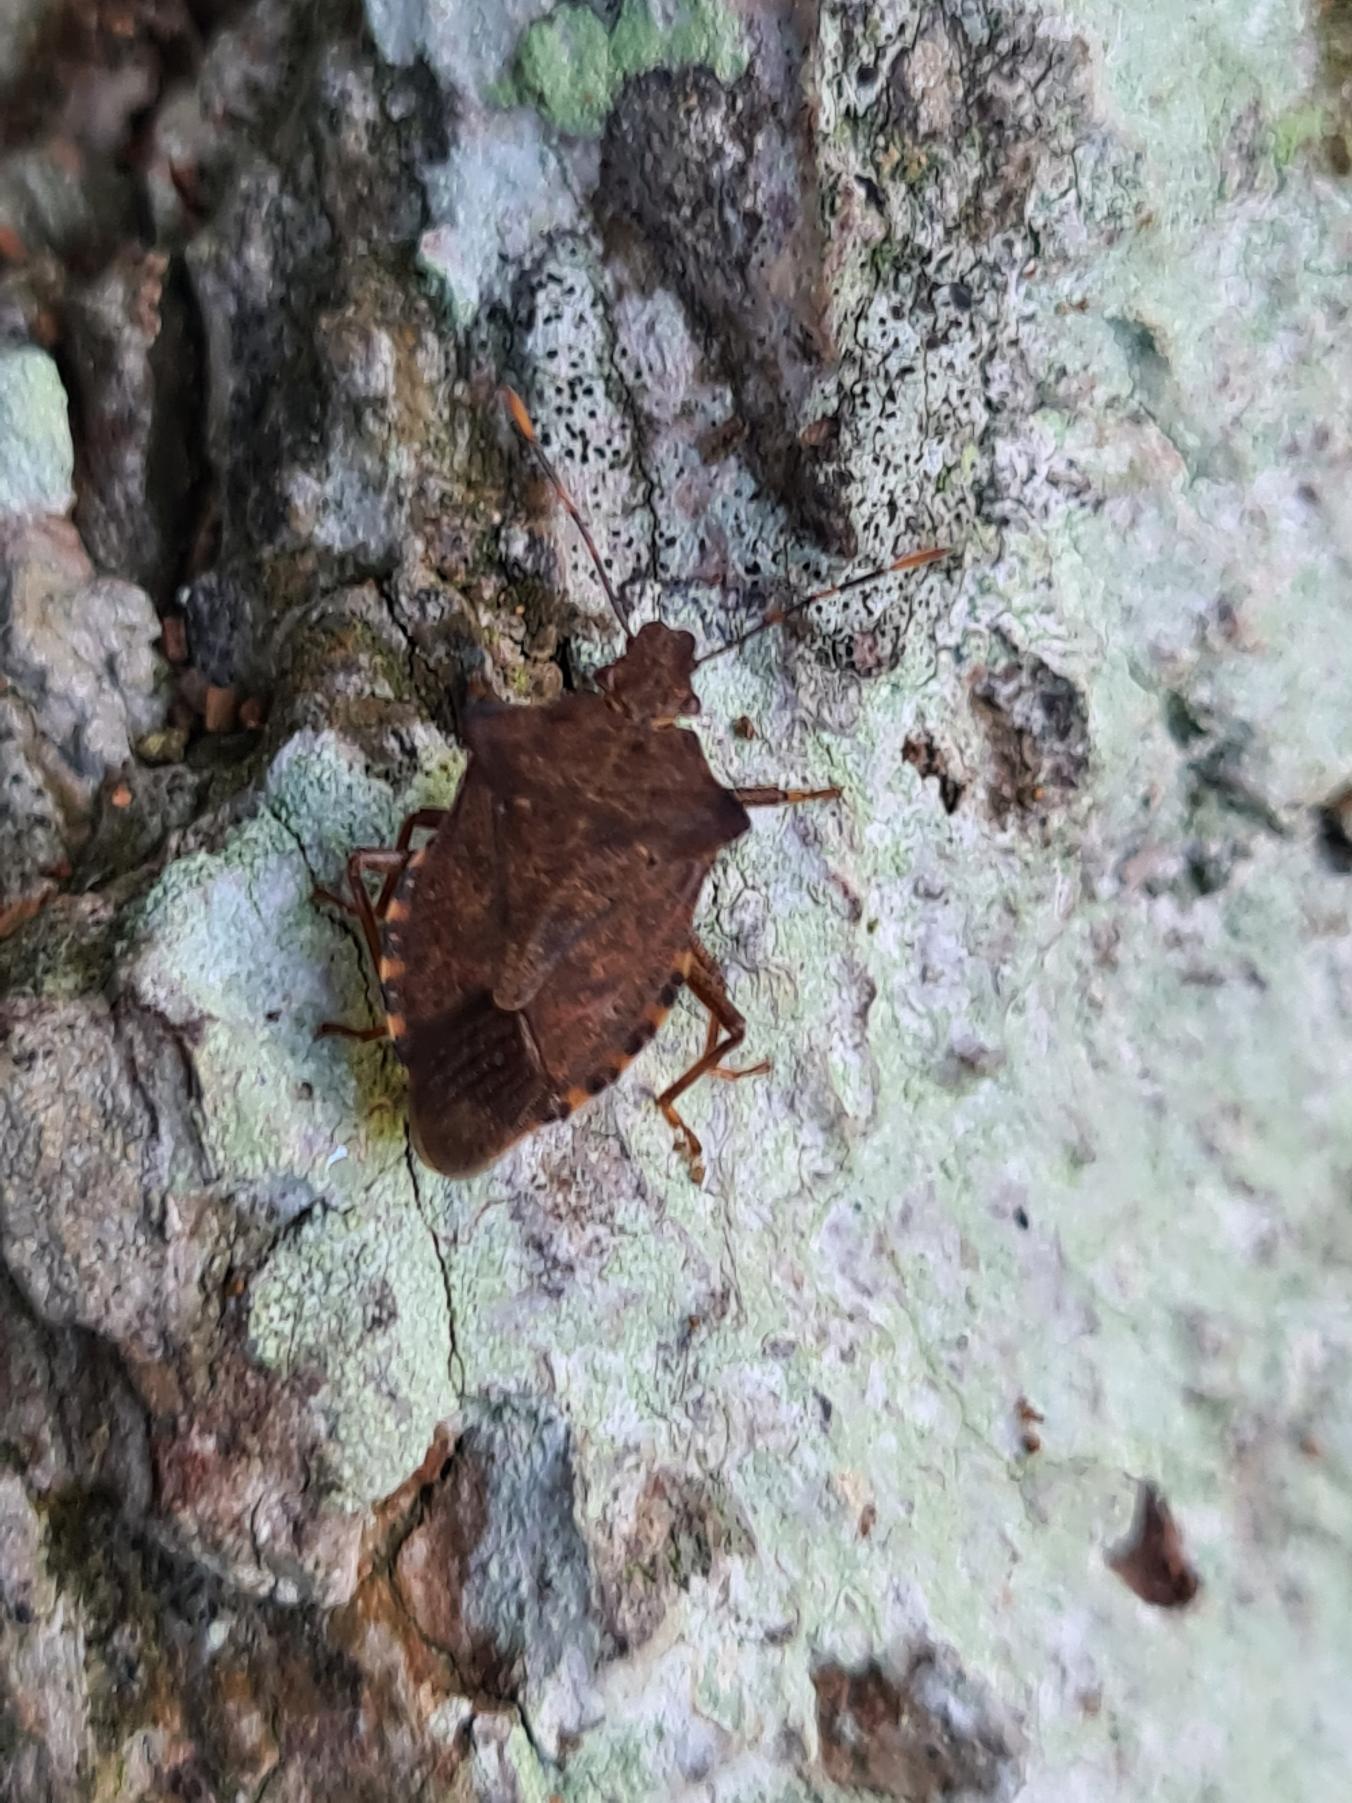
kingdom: Animalia
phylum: Arthropoda
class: Insecta
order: Hemiptera
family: Pentatomidae
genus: Arma
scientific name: Arma custos
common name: Kustodetæge
